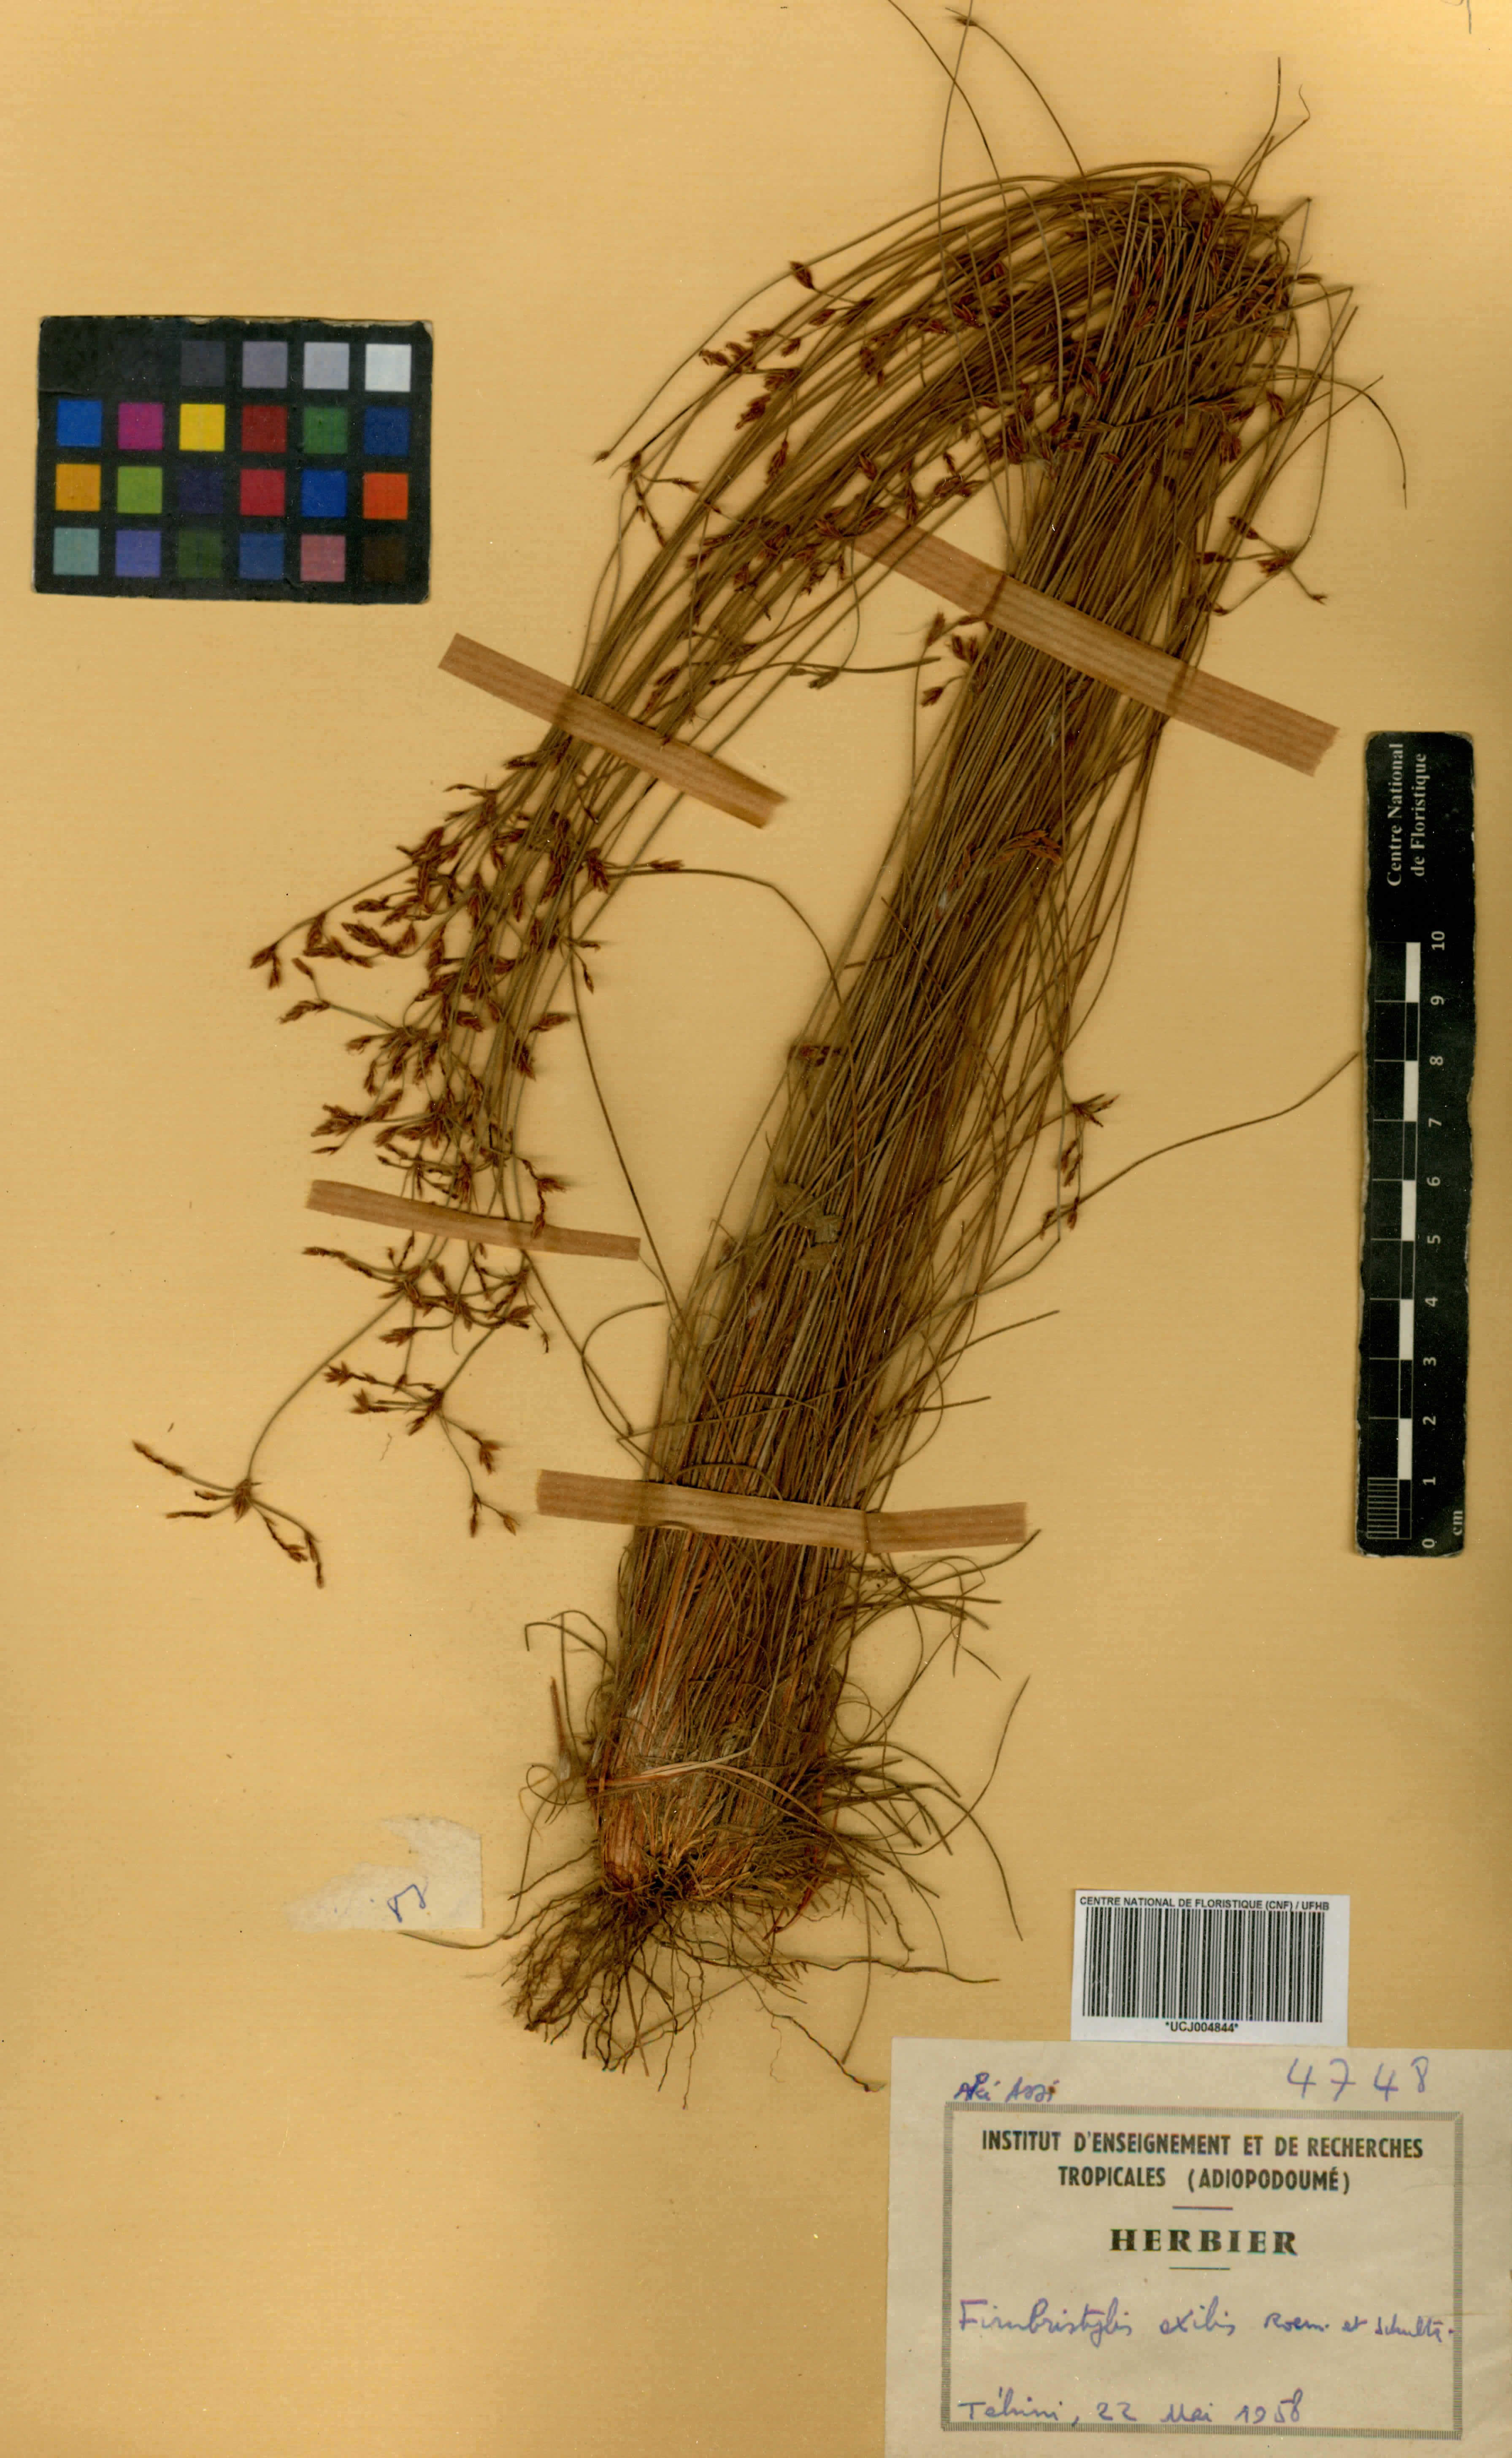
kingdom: Plantae
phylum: Tracheophyta
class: Liliopsida
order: Poales
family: Cyperaceae
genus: Bulbostylis
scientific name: Bulbostylis hispidula
